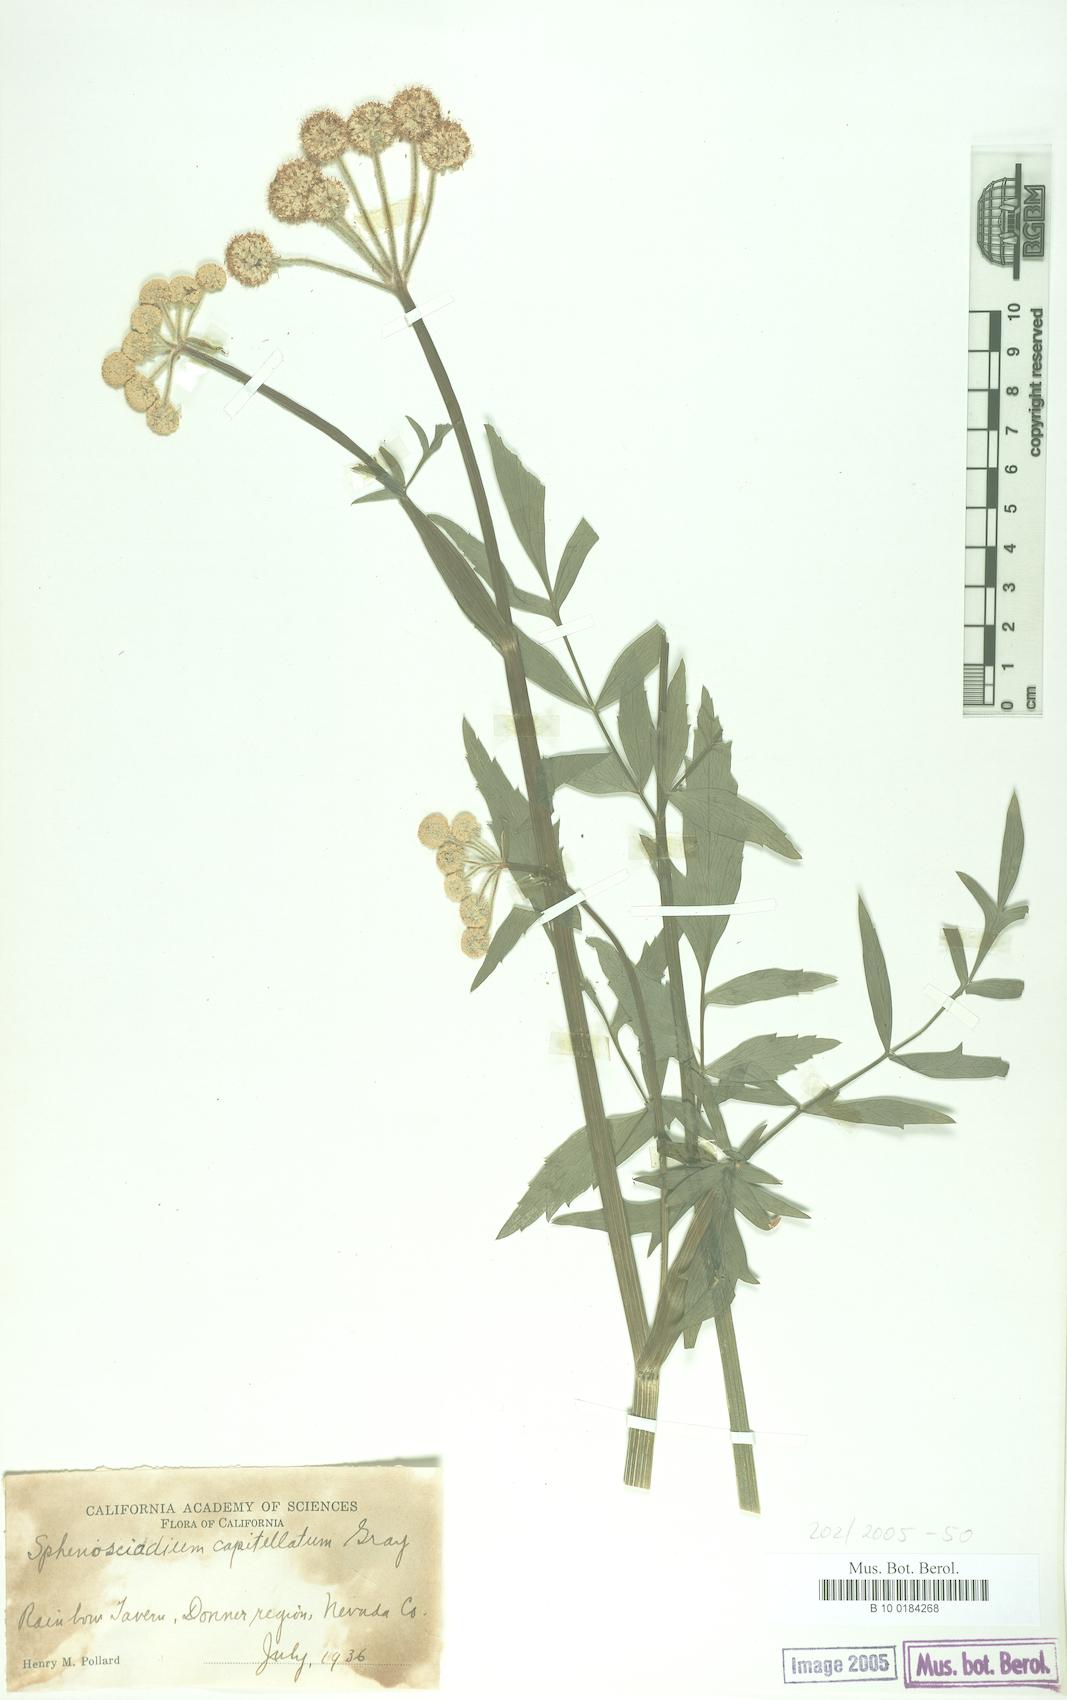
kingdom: Plantae
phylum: Tracheophyta
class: Magnoliopsida
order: Apiales
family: Apiaceae
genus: Angelica
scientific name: Angelica capitellata
